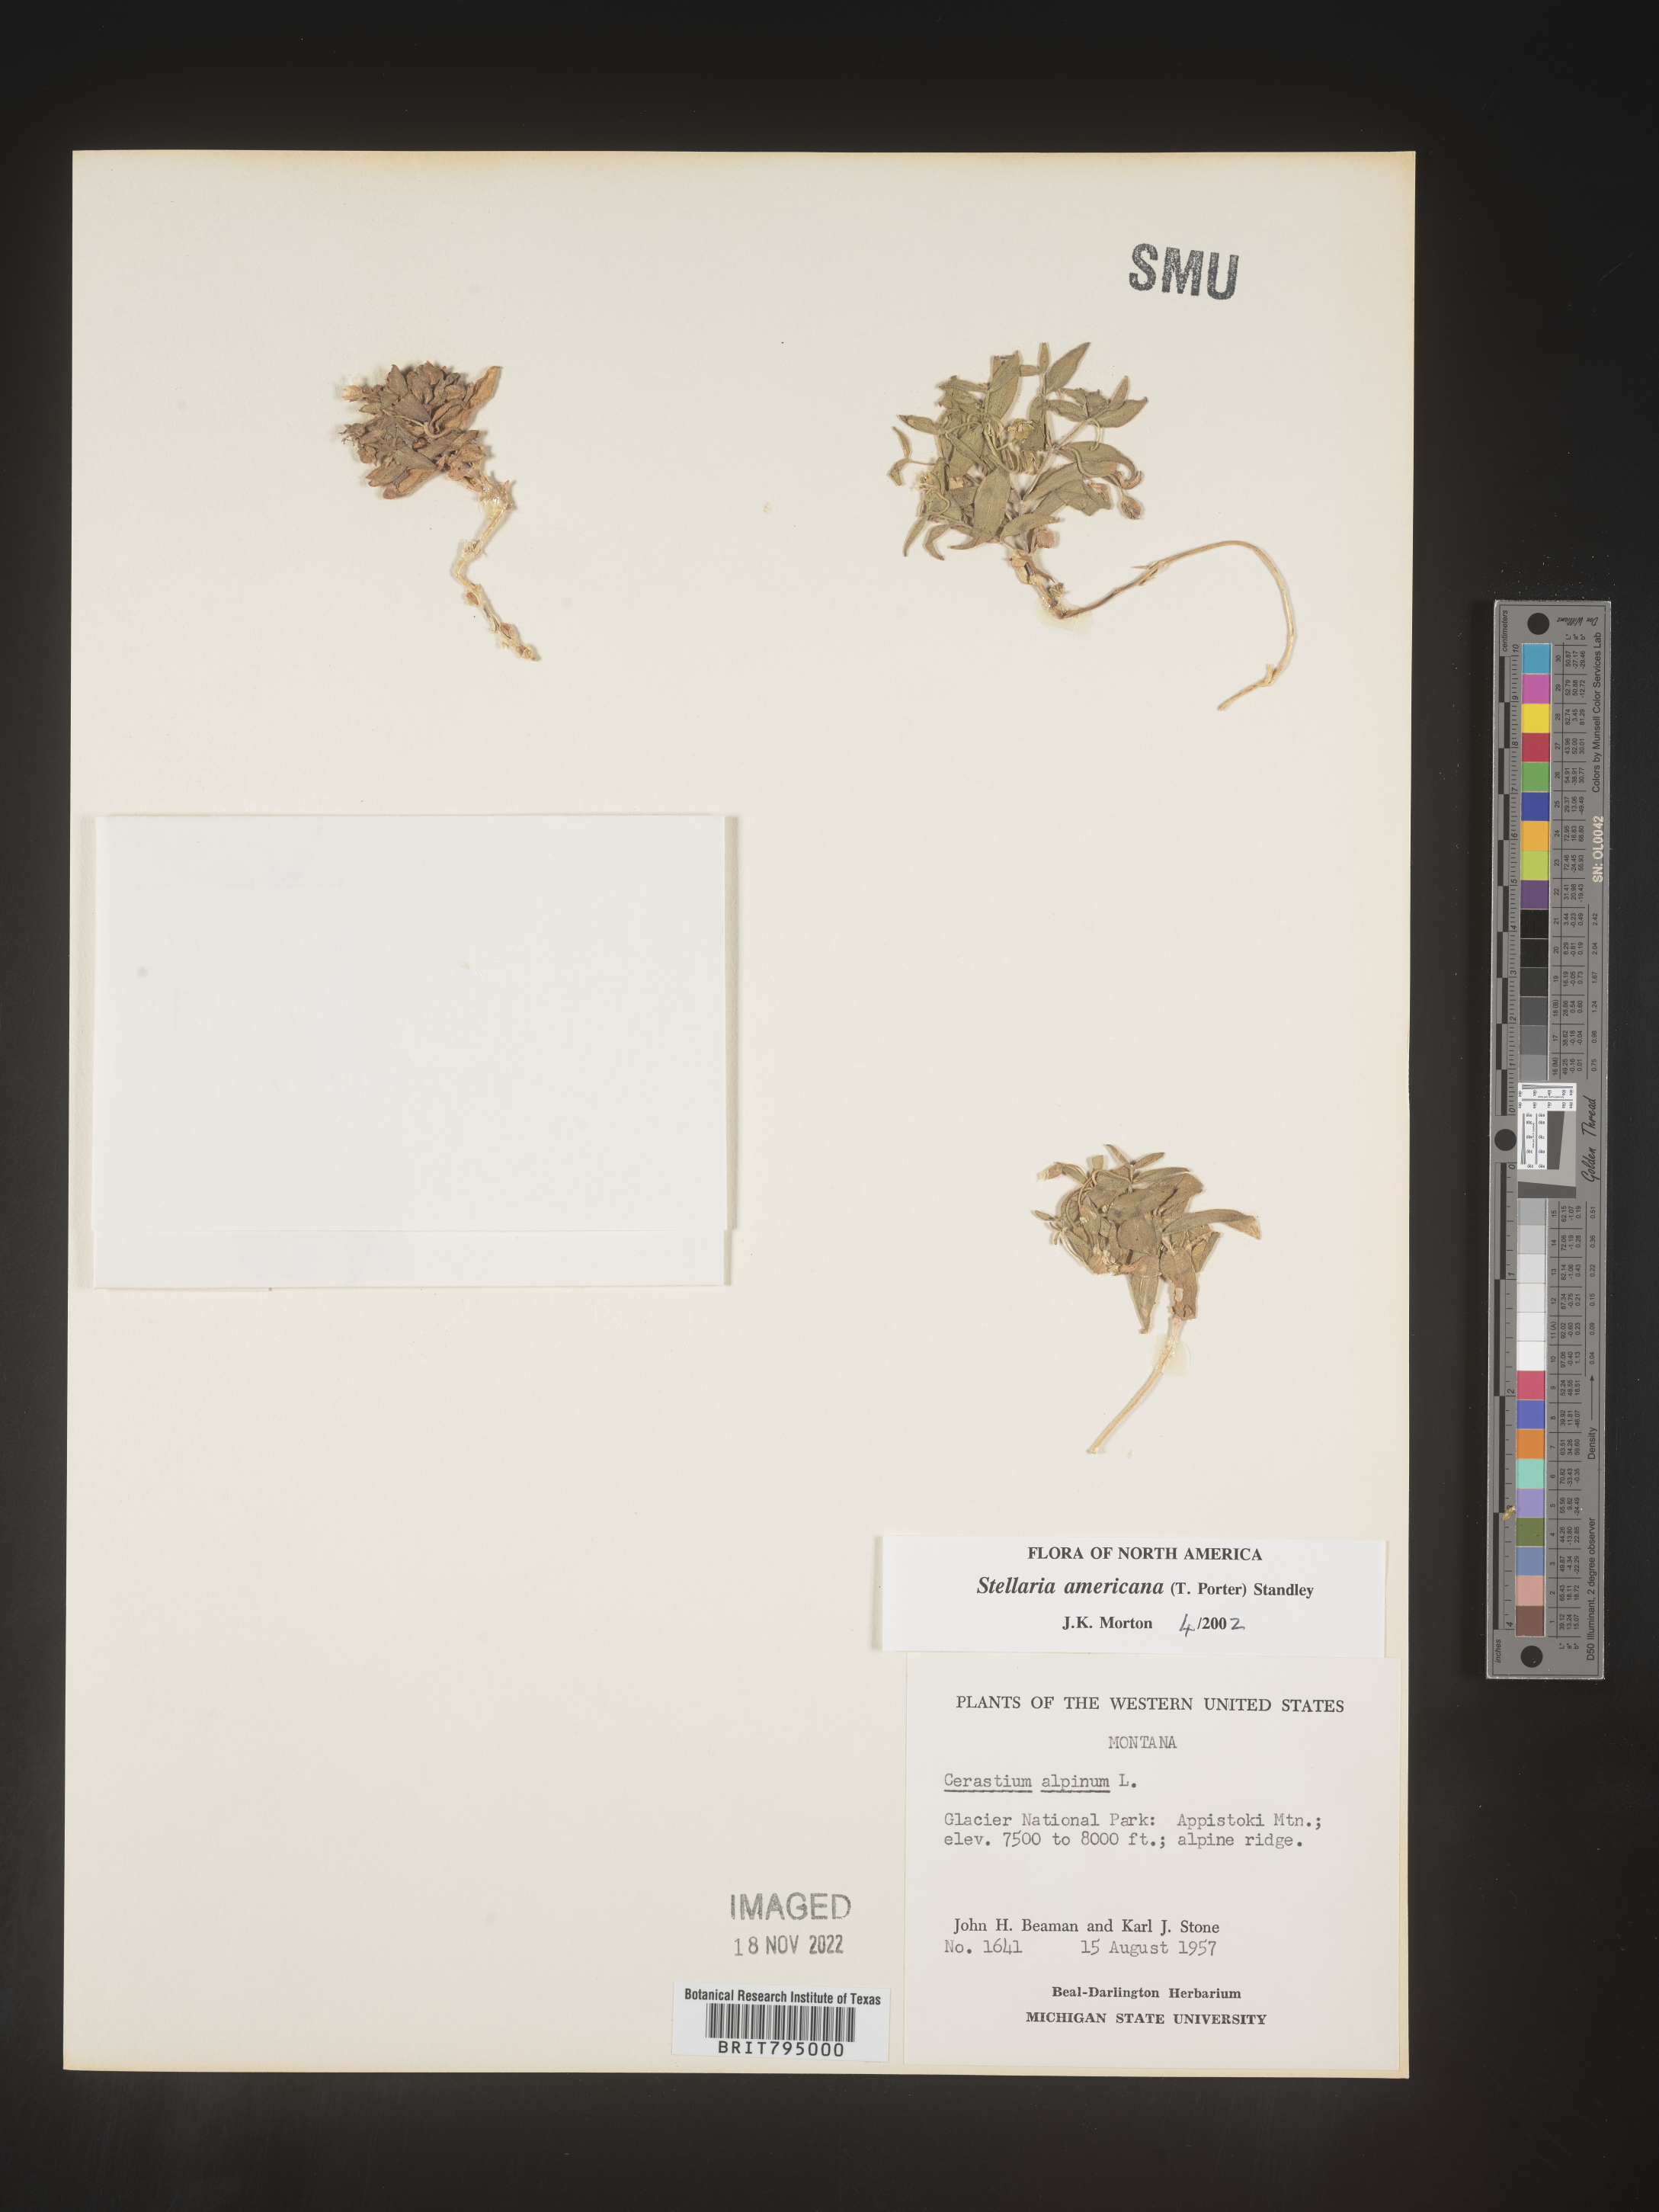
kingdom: Plantae
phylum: Tracheophyta
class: Magnoliopsida
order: Caryophyllales
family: Caryophyllaceae
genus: Schizotechium
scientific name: Schizotechium americanum
